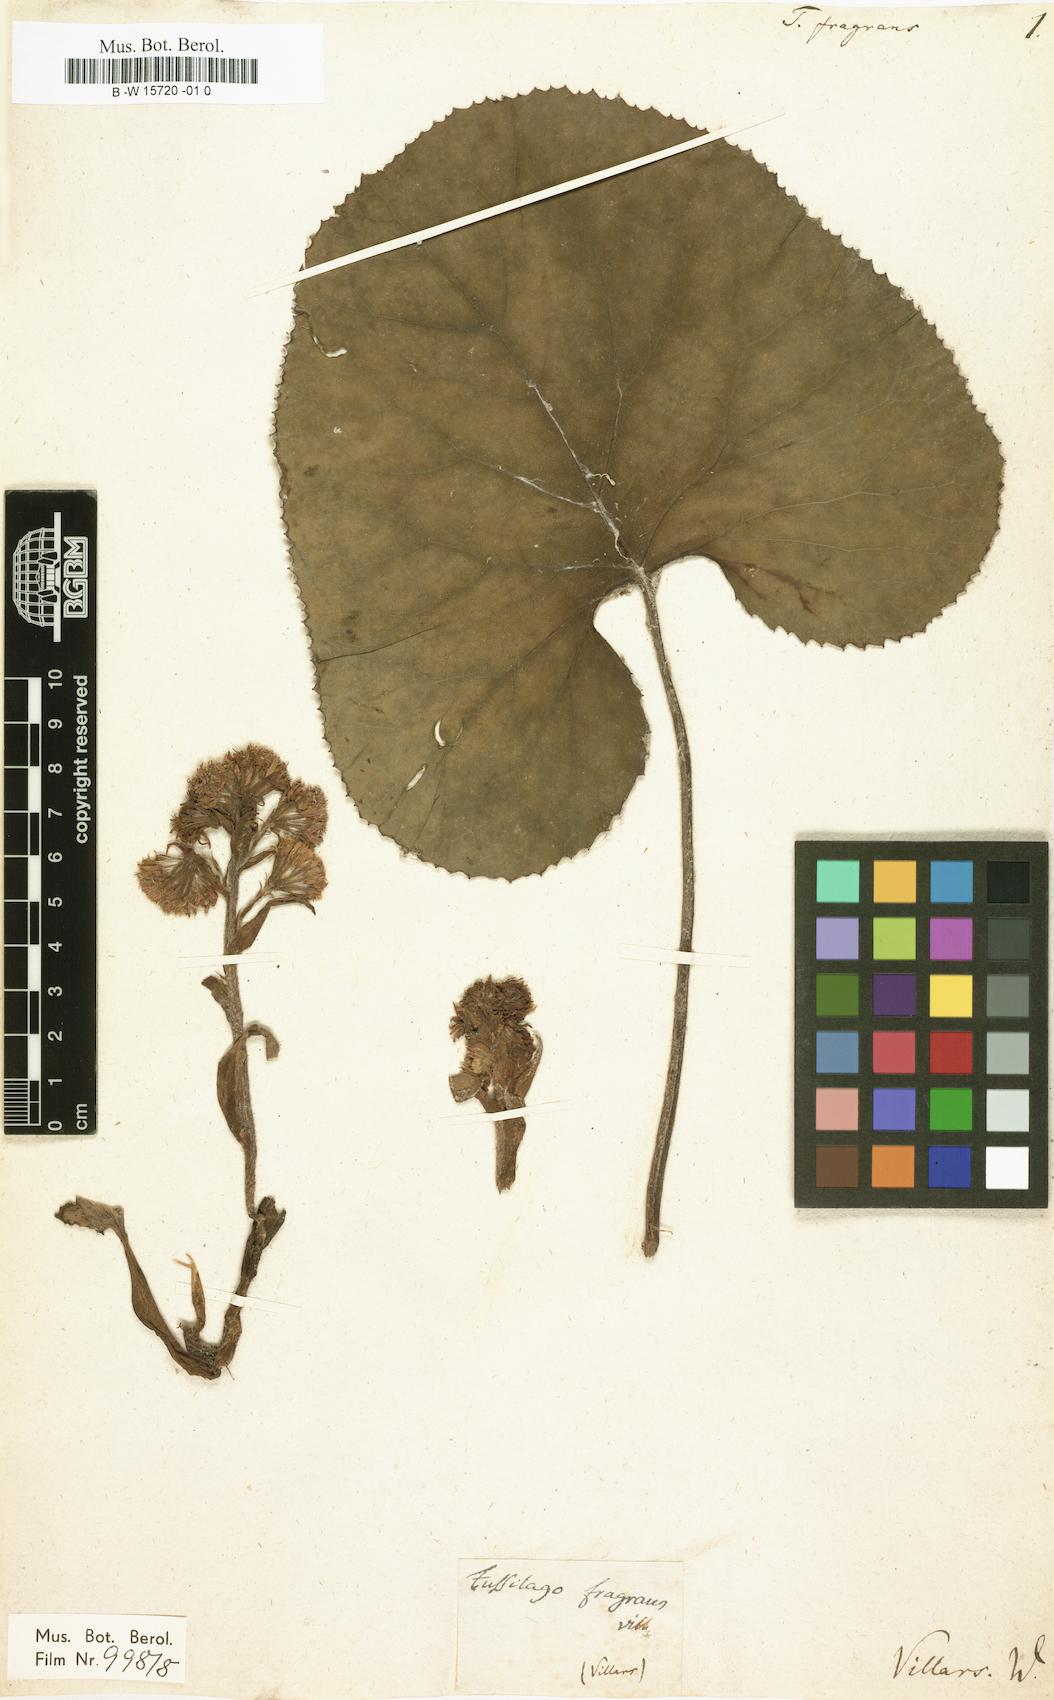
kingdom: Plantae
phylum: Tracheophyta
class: Magnoliopsida
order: Asterales
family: Asteraceae
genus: Petasites
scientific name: Petasites pyrenaicus
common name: Winter heliotrope
